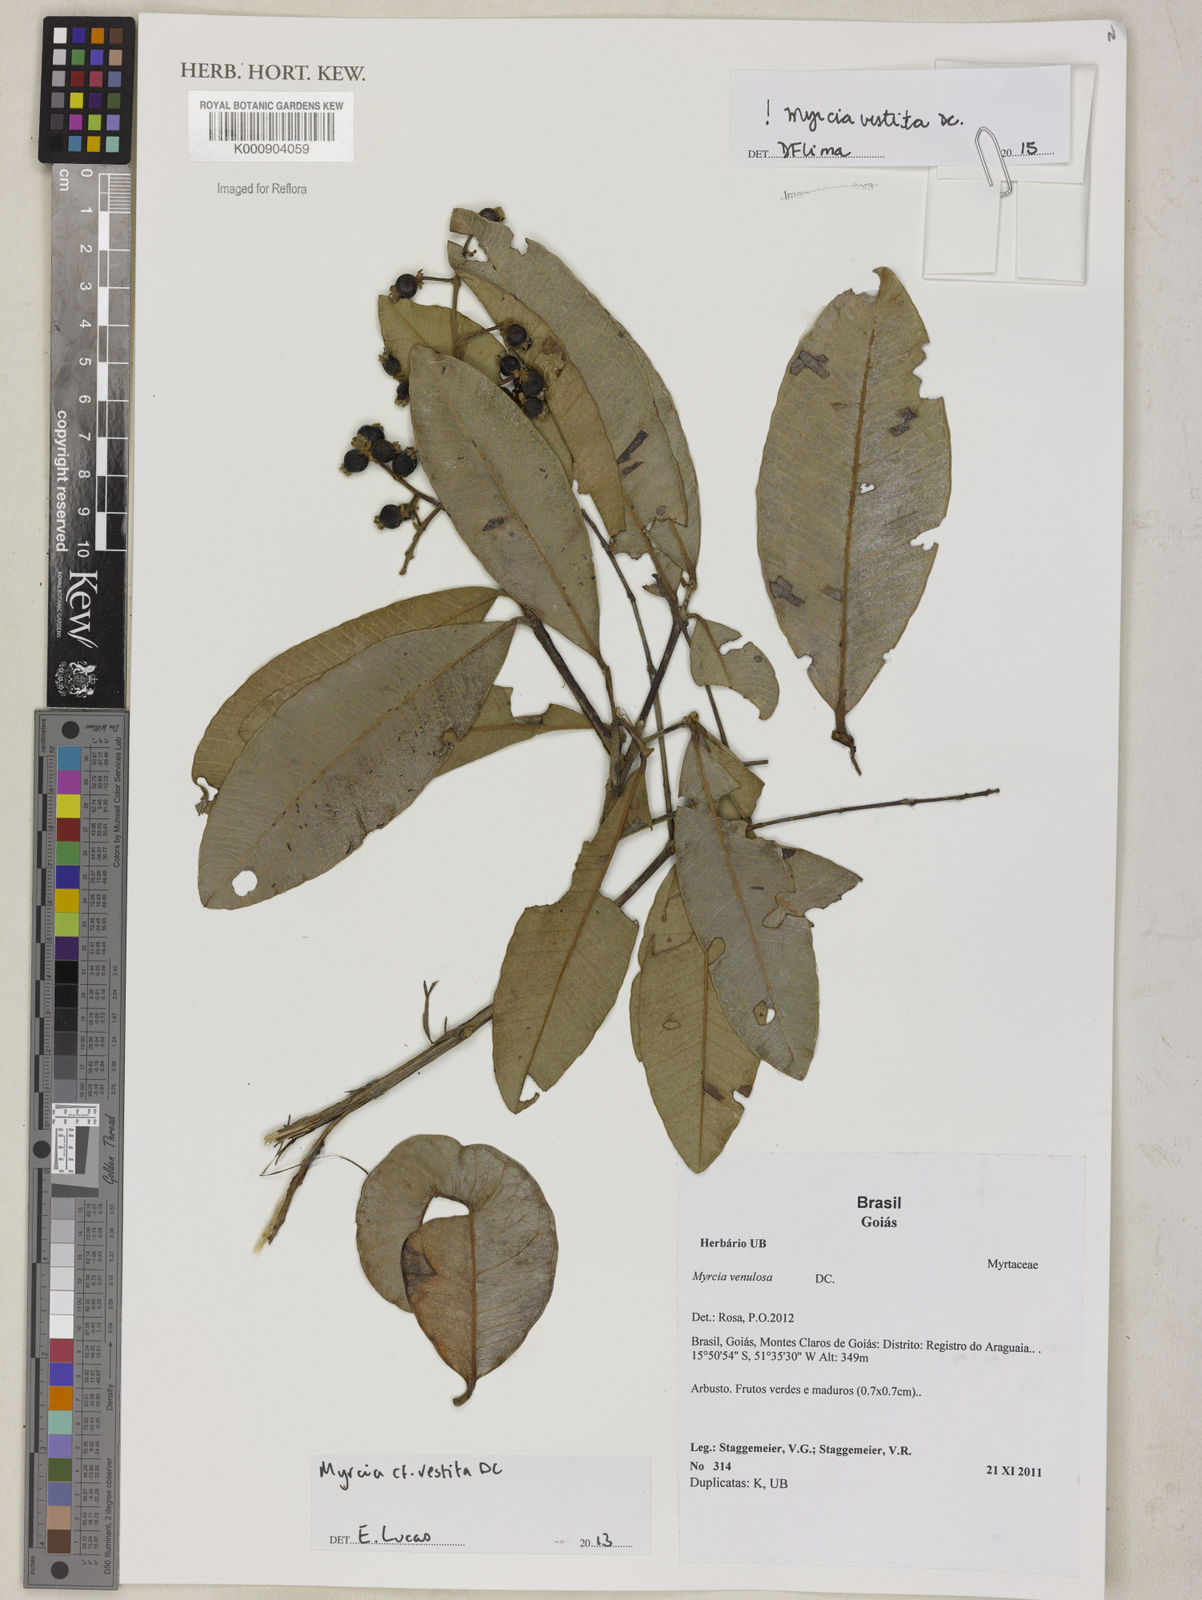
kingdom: Plantae
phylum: Tracheophyta
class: Magnoliopsida
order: Myrtales
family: Myrtaceae
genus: Myrcia
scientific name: Myrcia vestita
